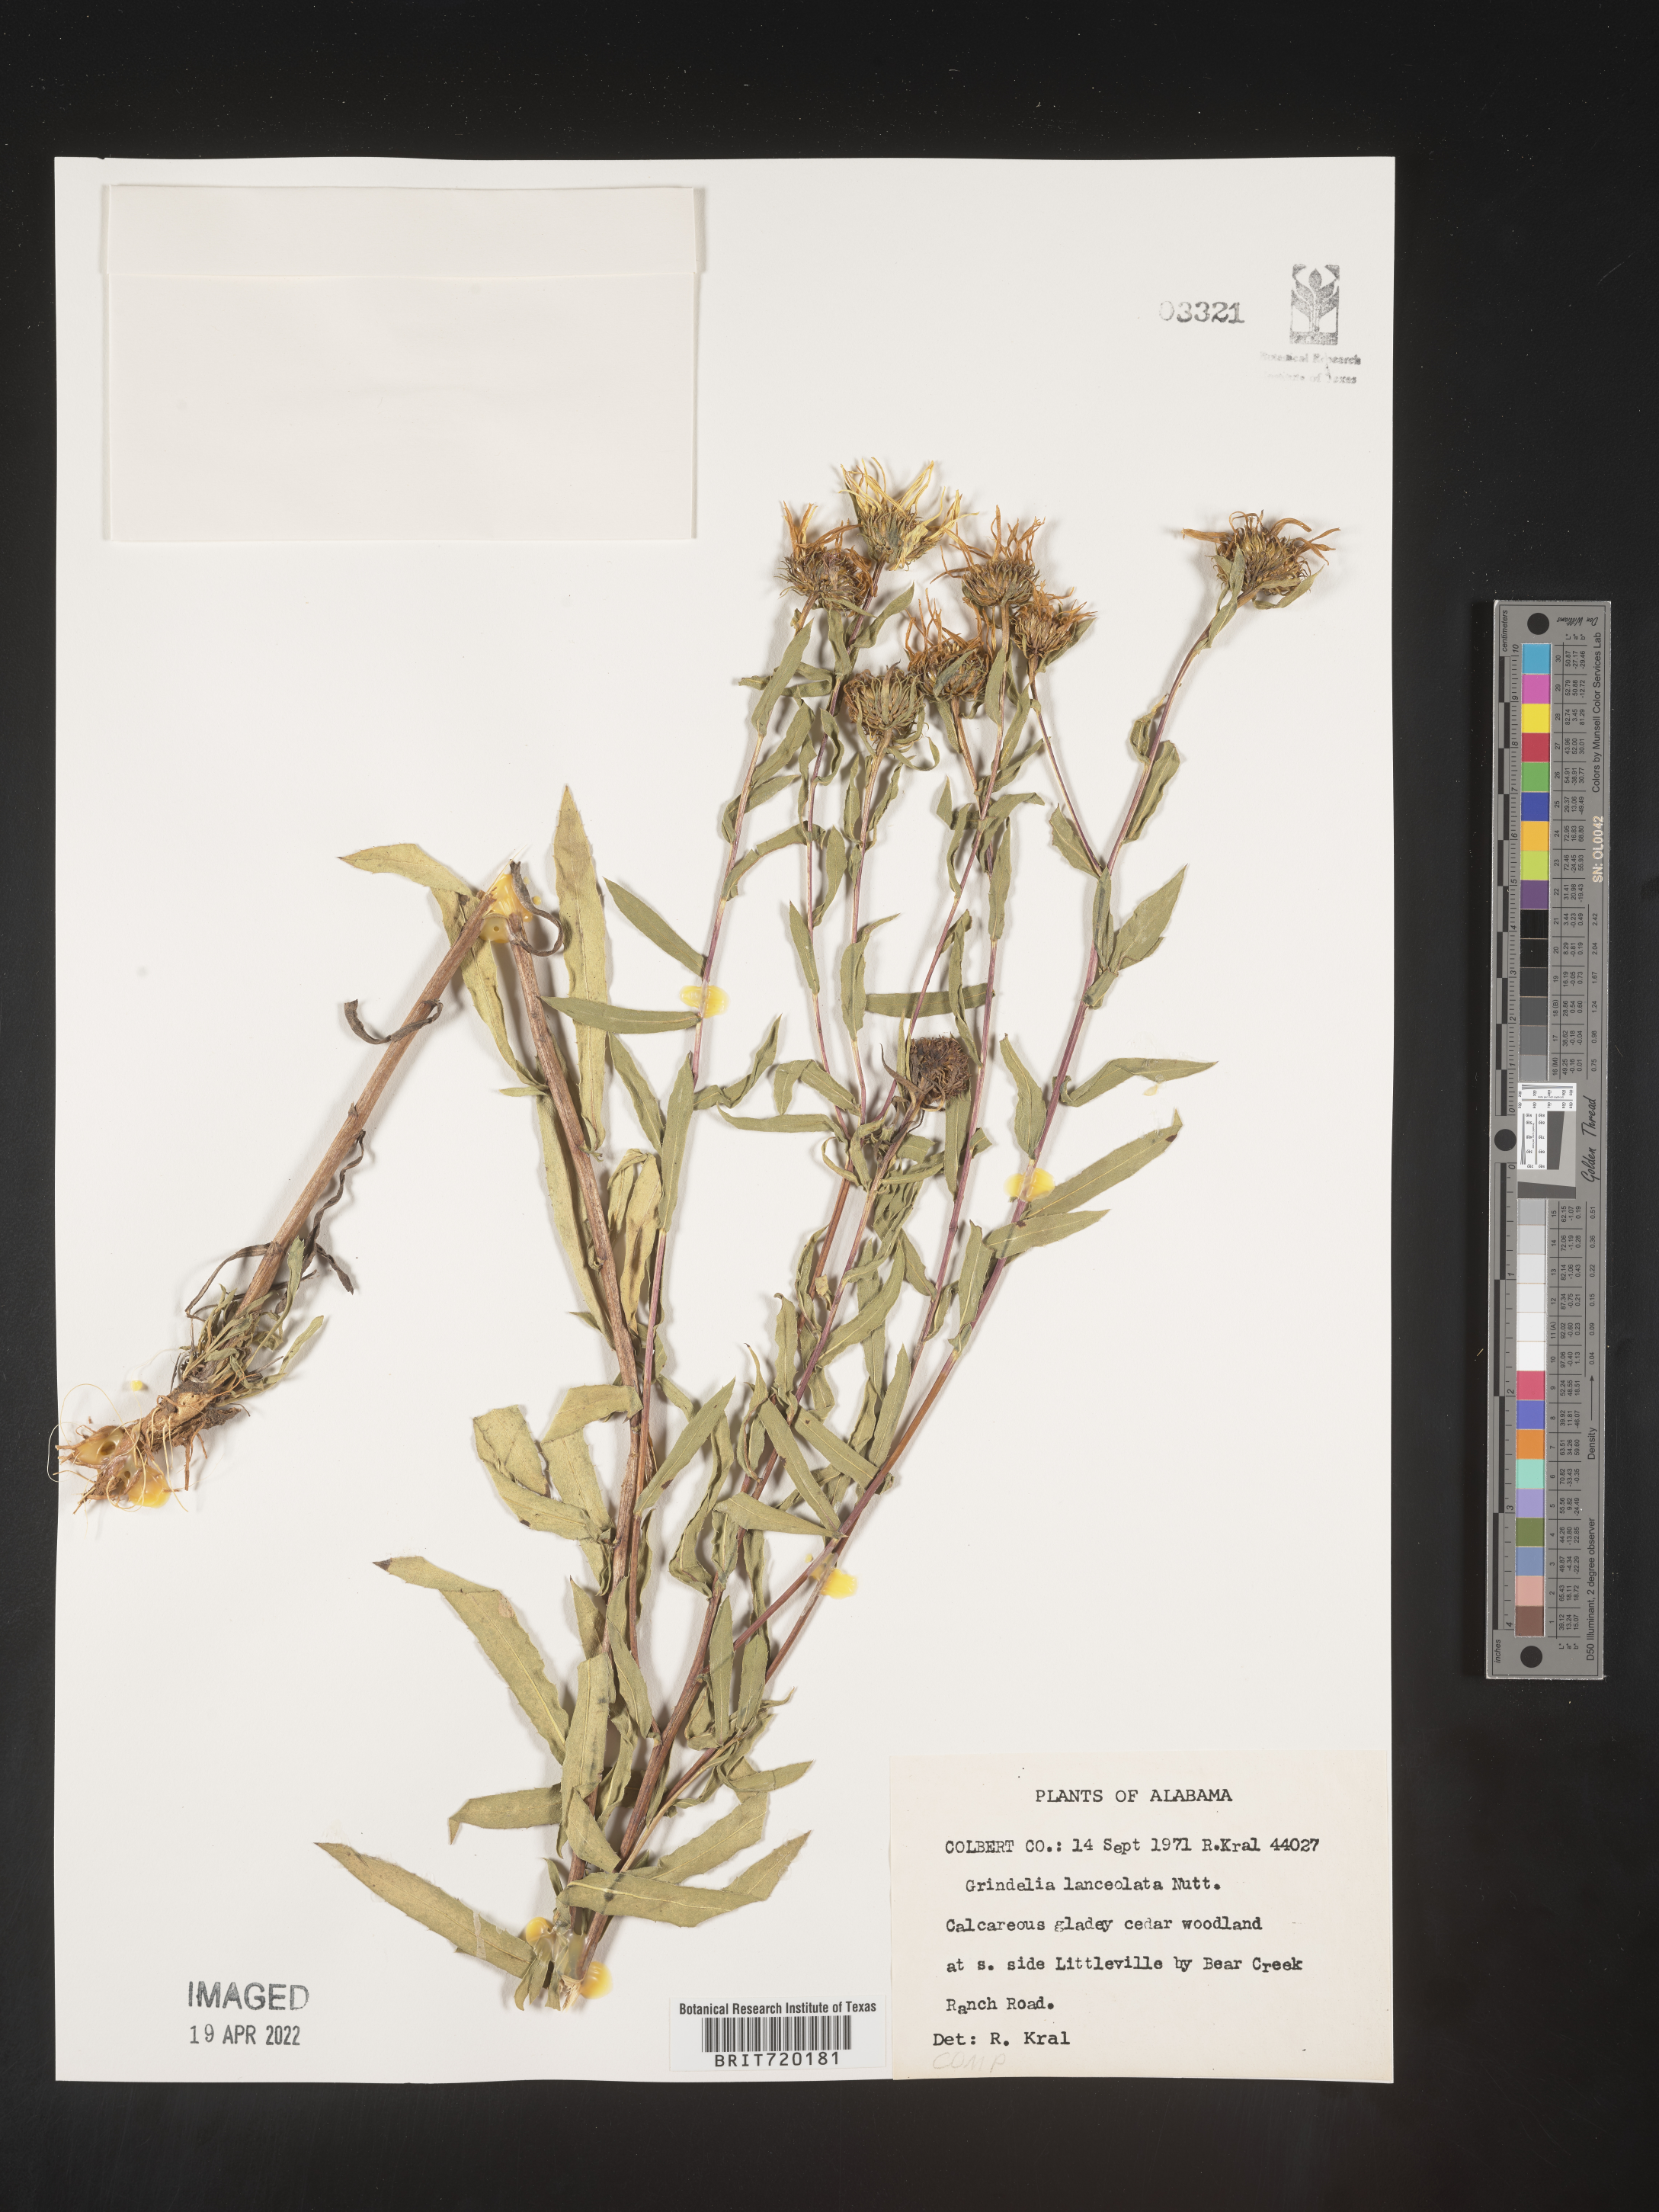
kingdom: Plantae
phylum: Tracheophyta
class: Magnoliopsida
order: Asterales
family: Asteraceae
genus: Grindelia
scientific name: Grindelia lanceolata
